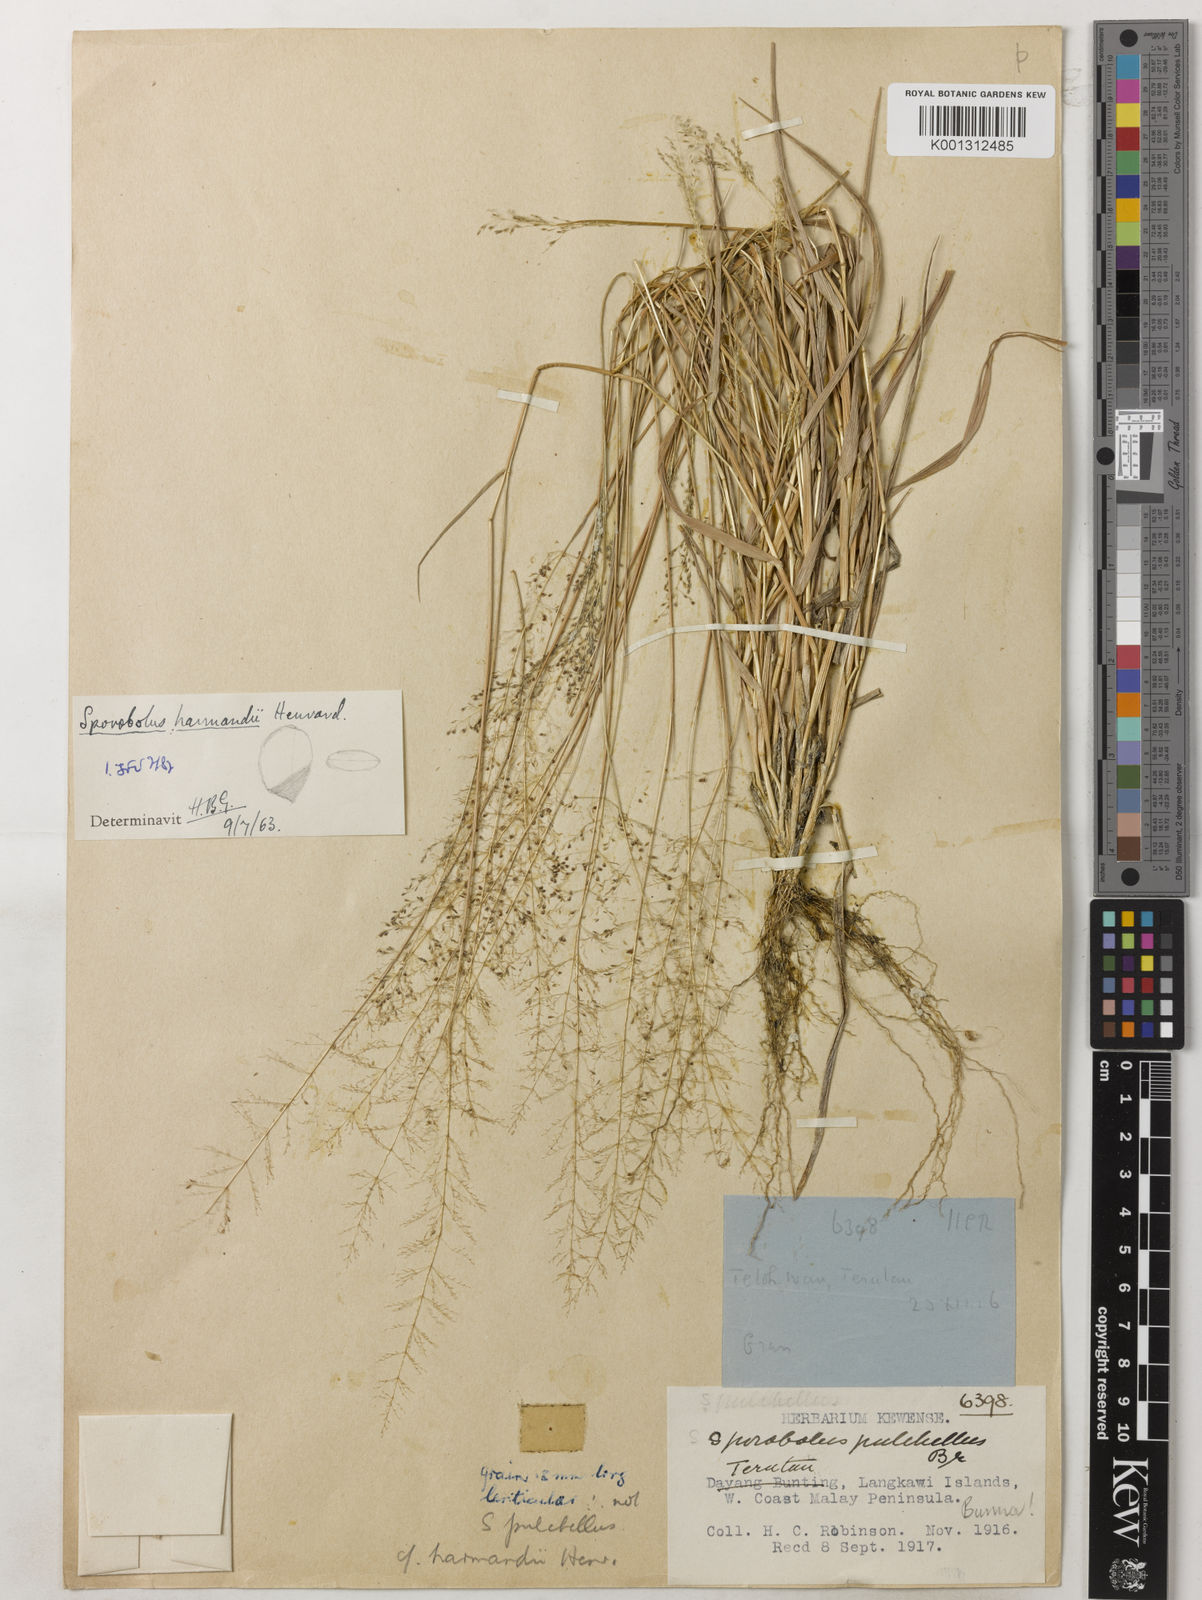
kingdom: Plantae
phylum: Tracheophyta
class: Liliopsida
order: Poales
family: Poaceae
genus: Sporobolus
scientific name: Sporobolus harmandii
